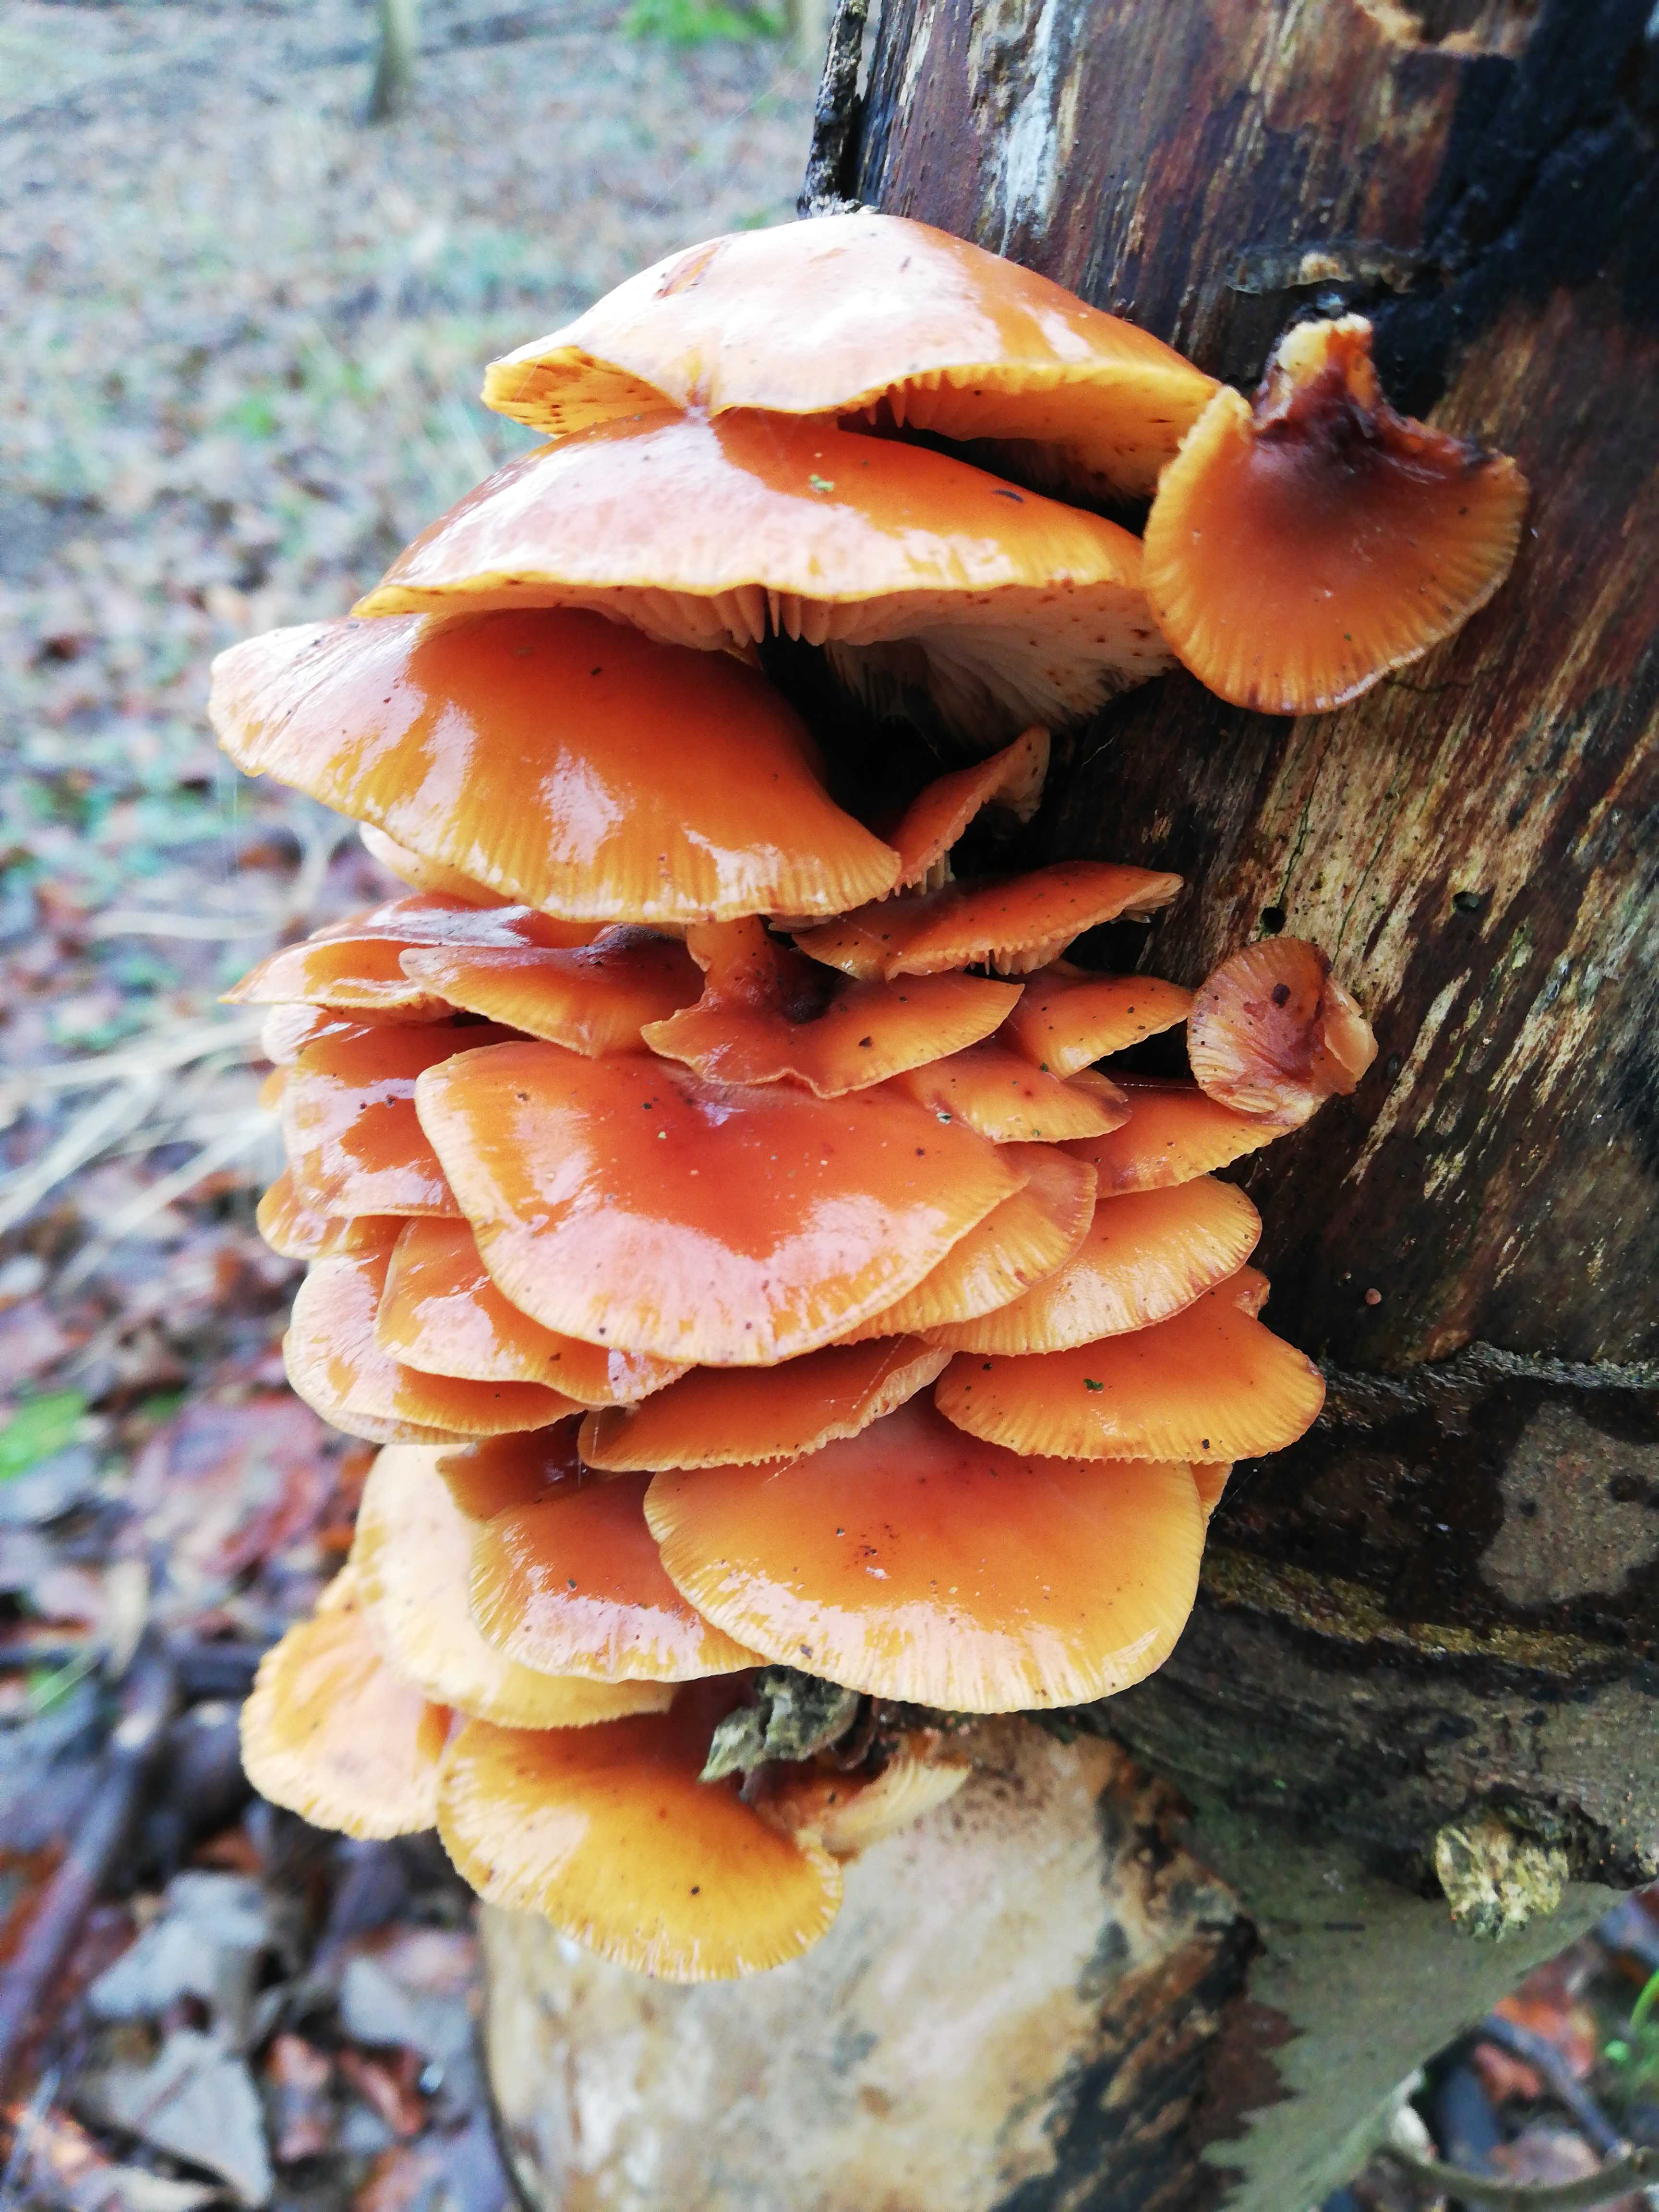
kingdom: Fungi
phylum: Basidiomycota
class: Agaricomycetes
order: Agaricales
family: Physalacriaceae
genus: Flammulina
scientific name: Flammulina velutipes
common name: gul fløjlsfod
